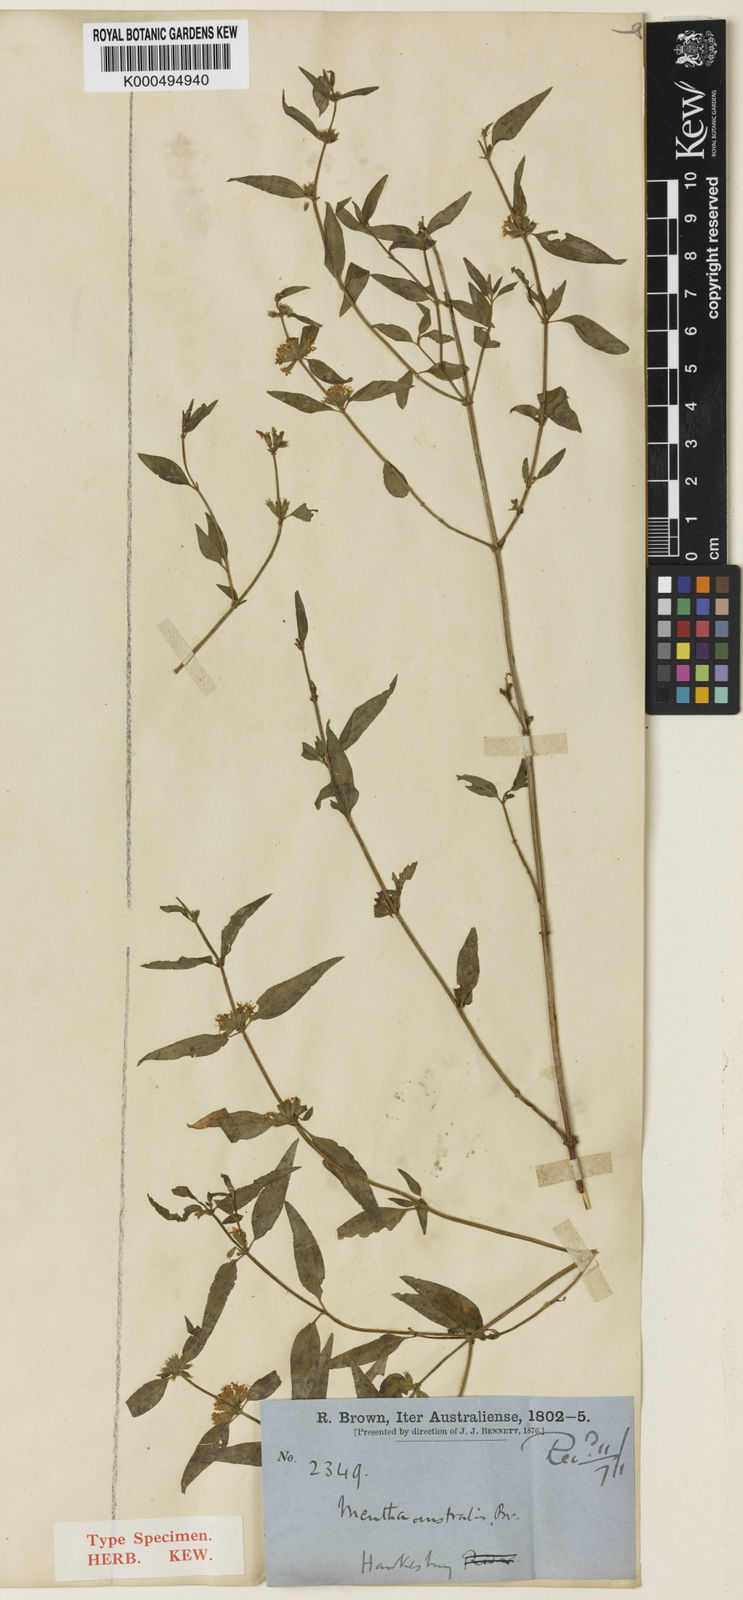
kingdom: Plantae
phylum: Tracheophyta
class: Magnoliopsida
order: Lamiales
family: Lamiaceae
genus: Mentha
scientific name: Mentha australis
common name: Australian mint
